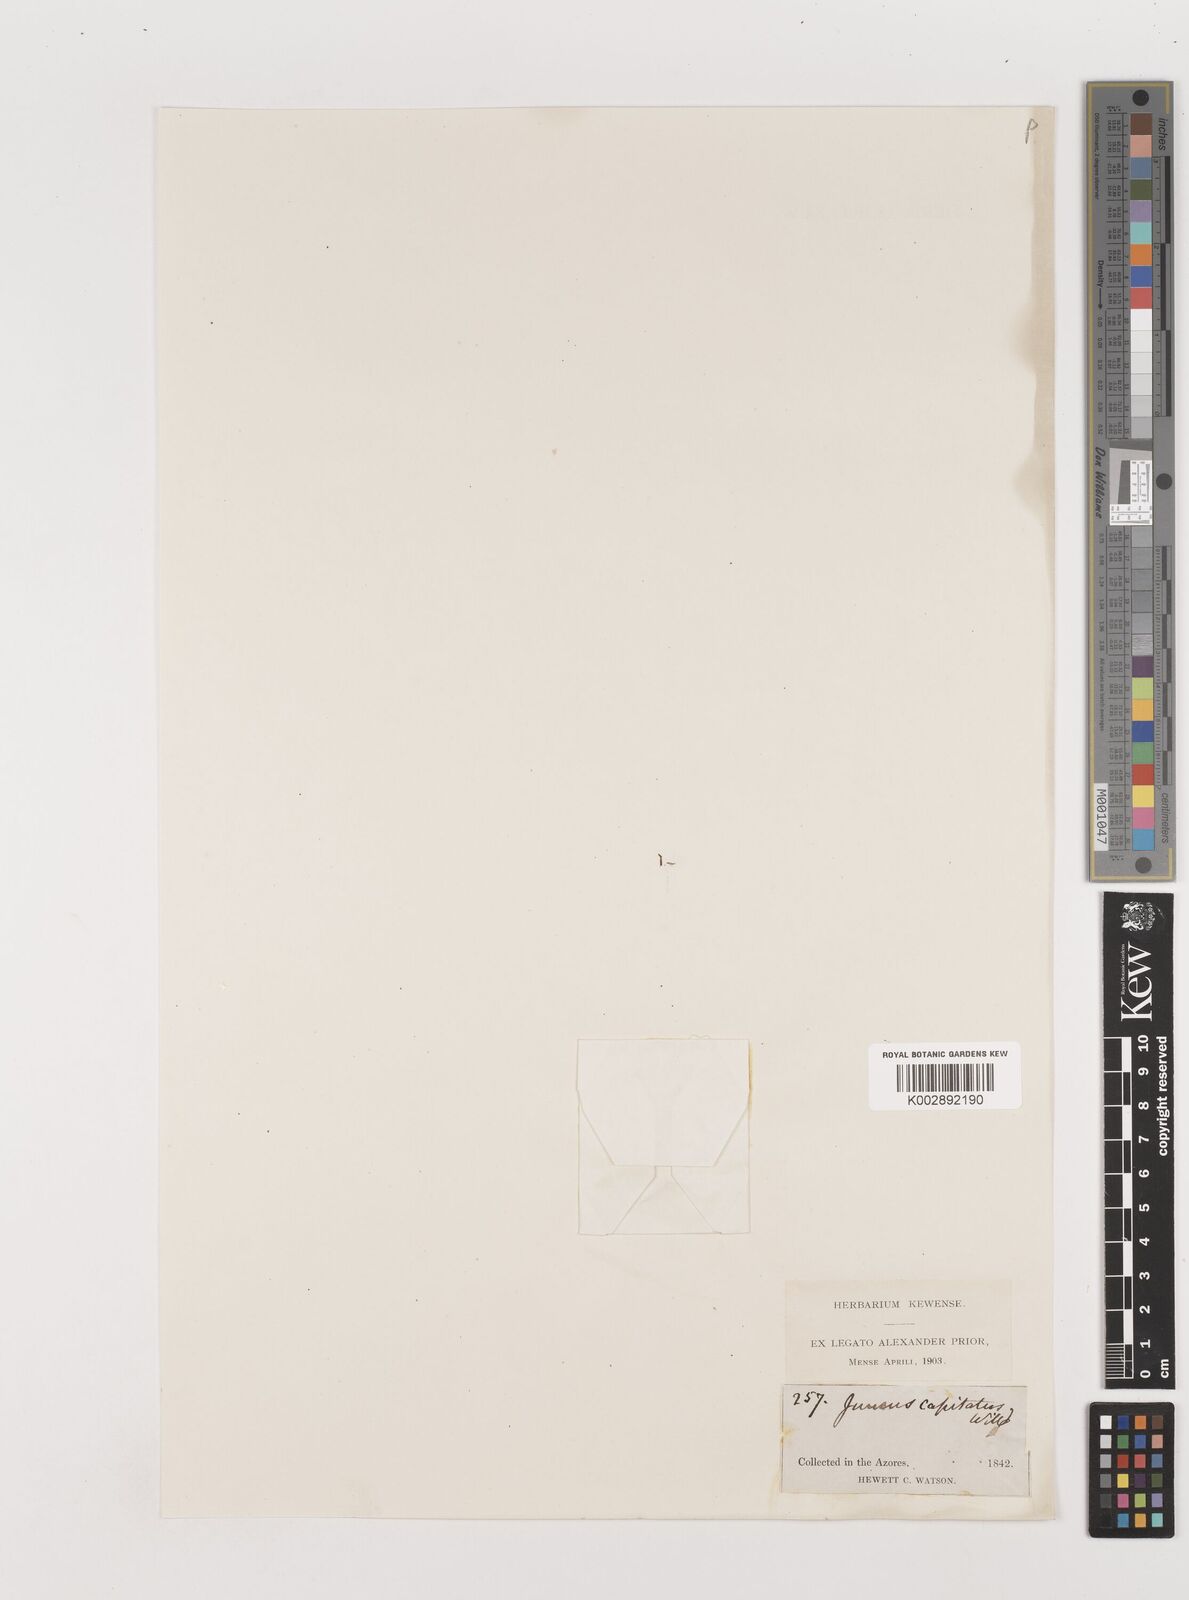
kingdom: Plantae
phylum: Tracheophyta
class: Liliopsida
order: Poales
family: Juncaceae
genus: Juncus
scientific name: Juncus capitatus
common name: Dwarf rush
